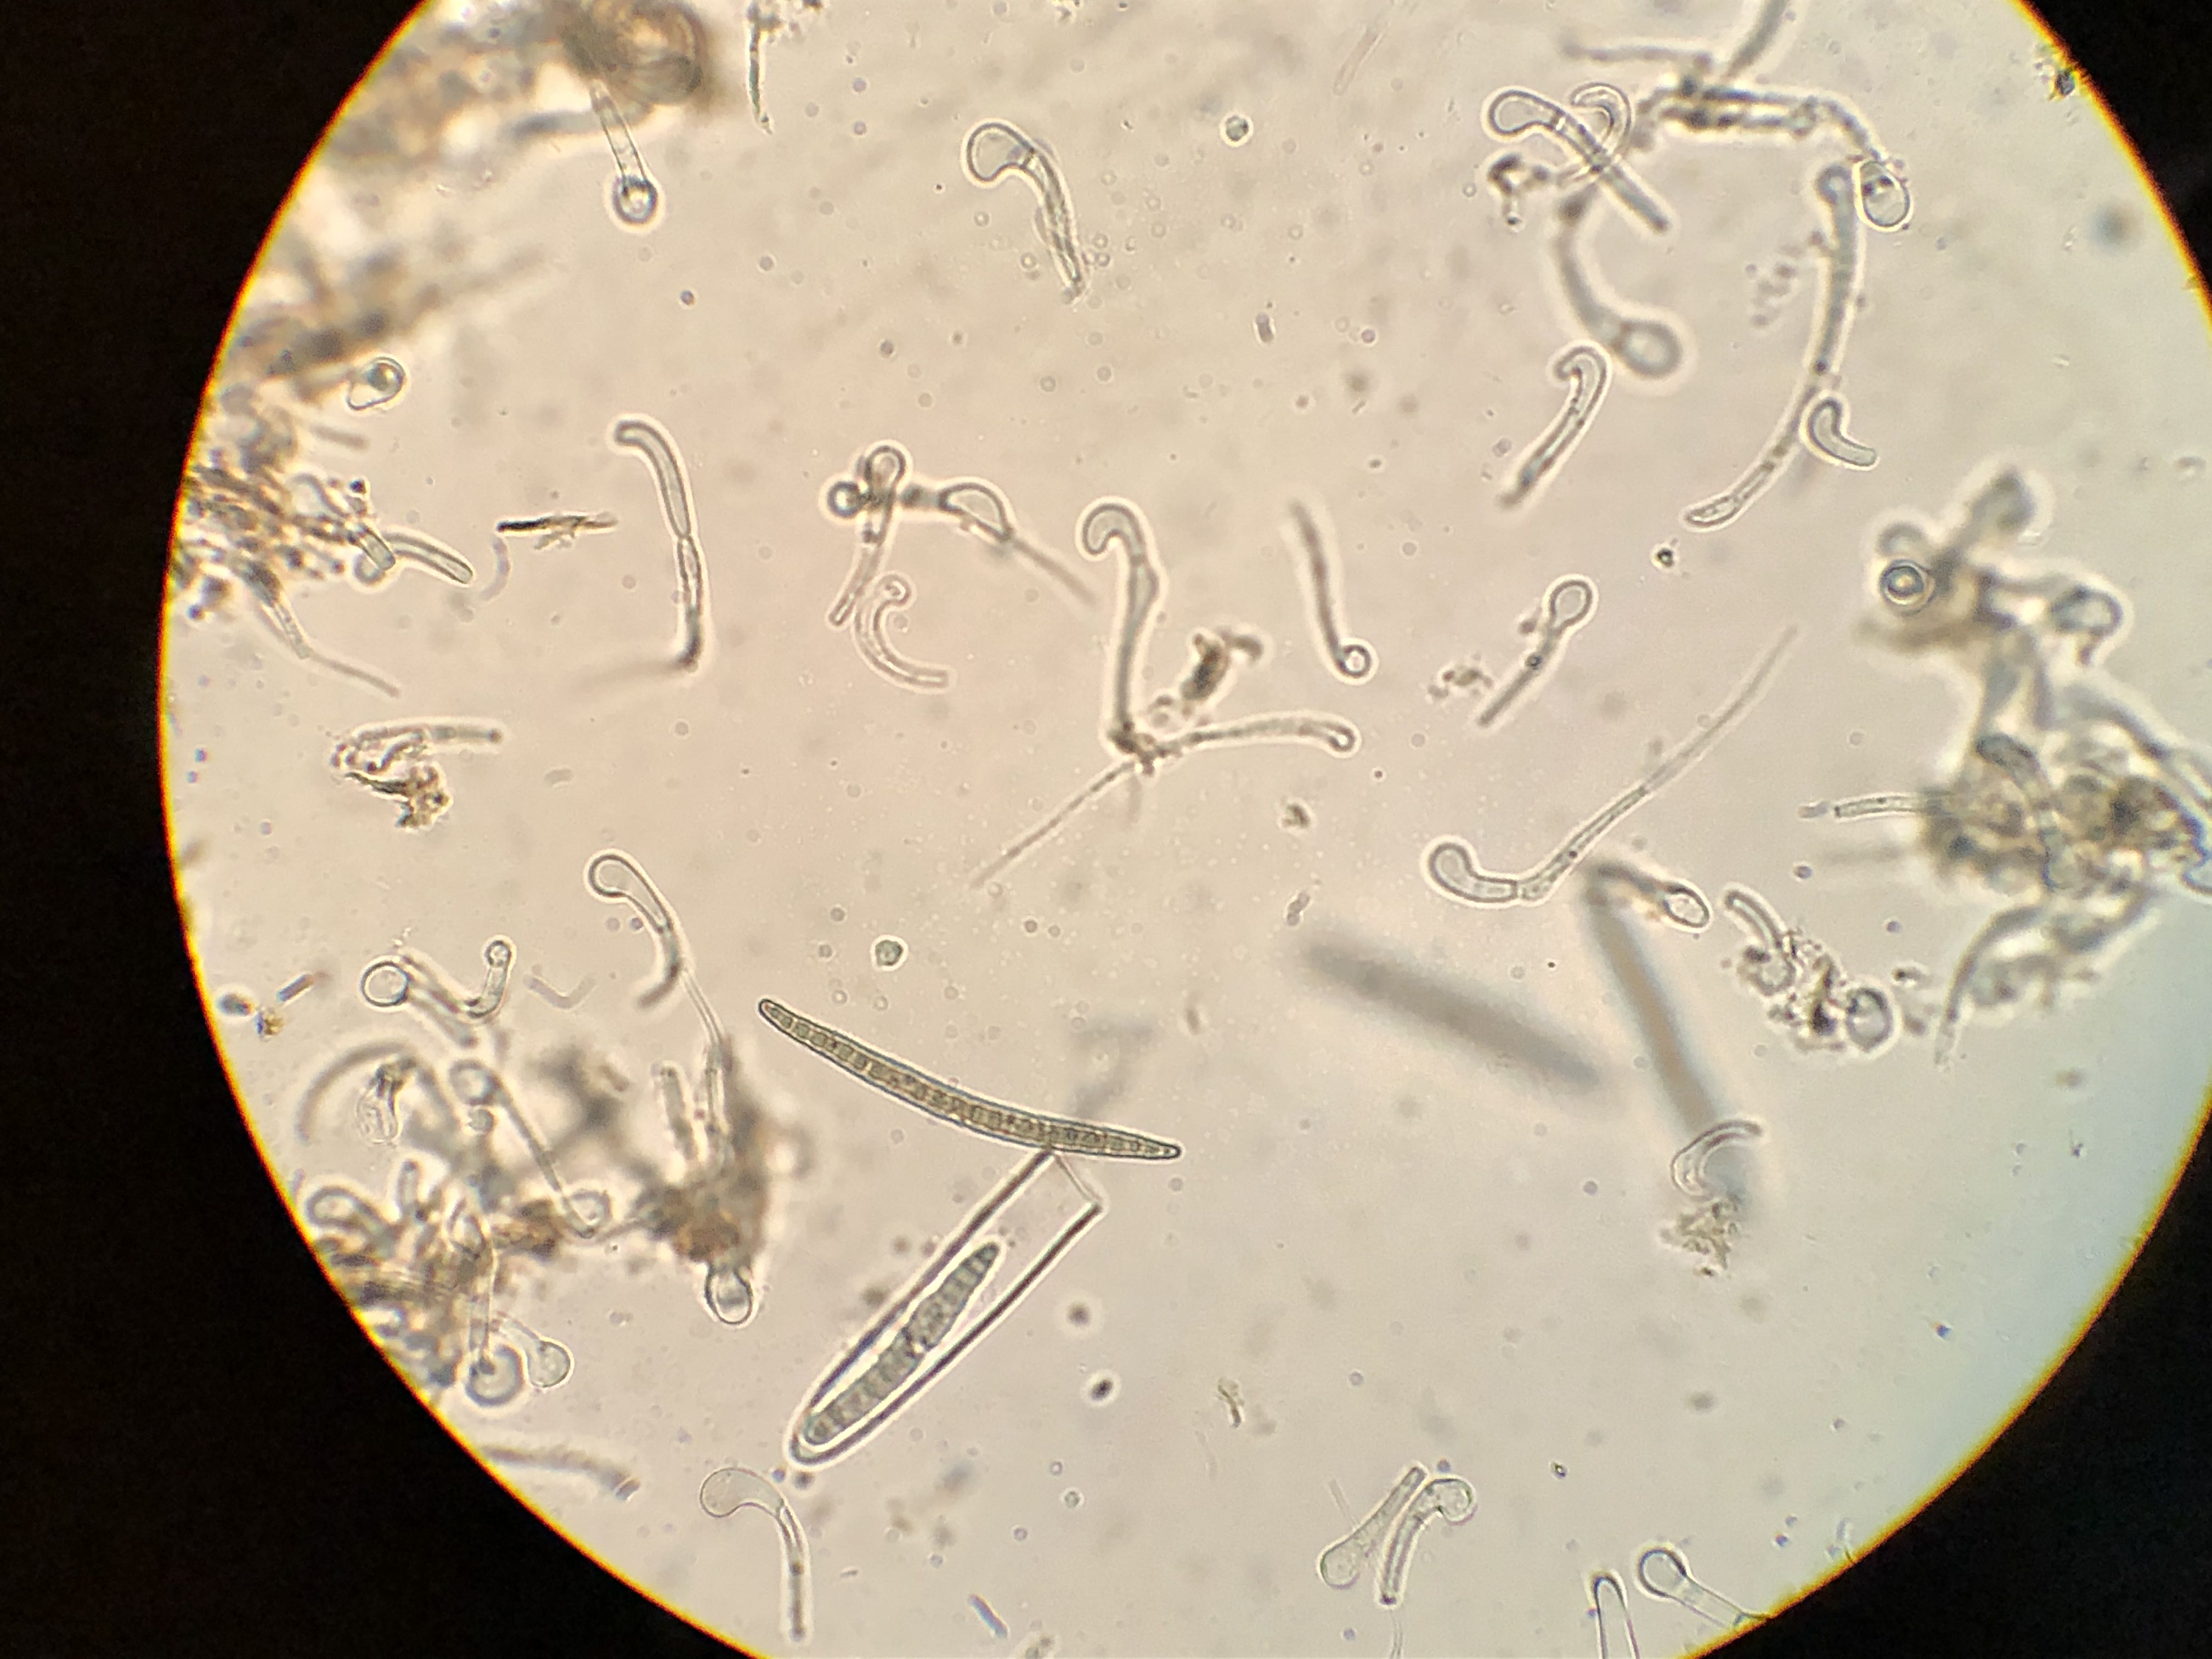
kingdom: Fungi
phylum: Ascomycota
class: Geoglossomycetes
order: Geoglossales
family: Geoglossaceae
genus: Geoglossum
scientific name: Geoglossum fallax
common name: småskællet jordtunge
